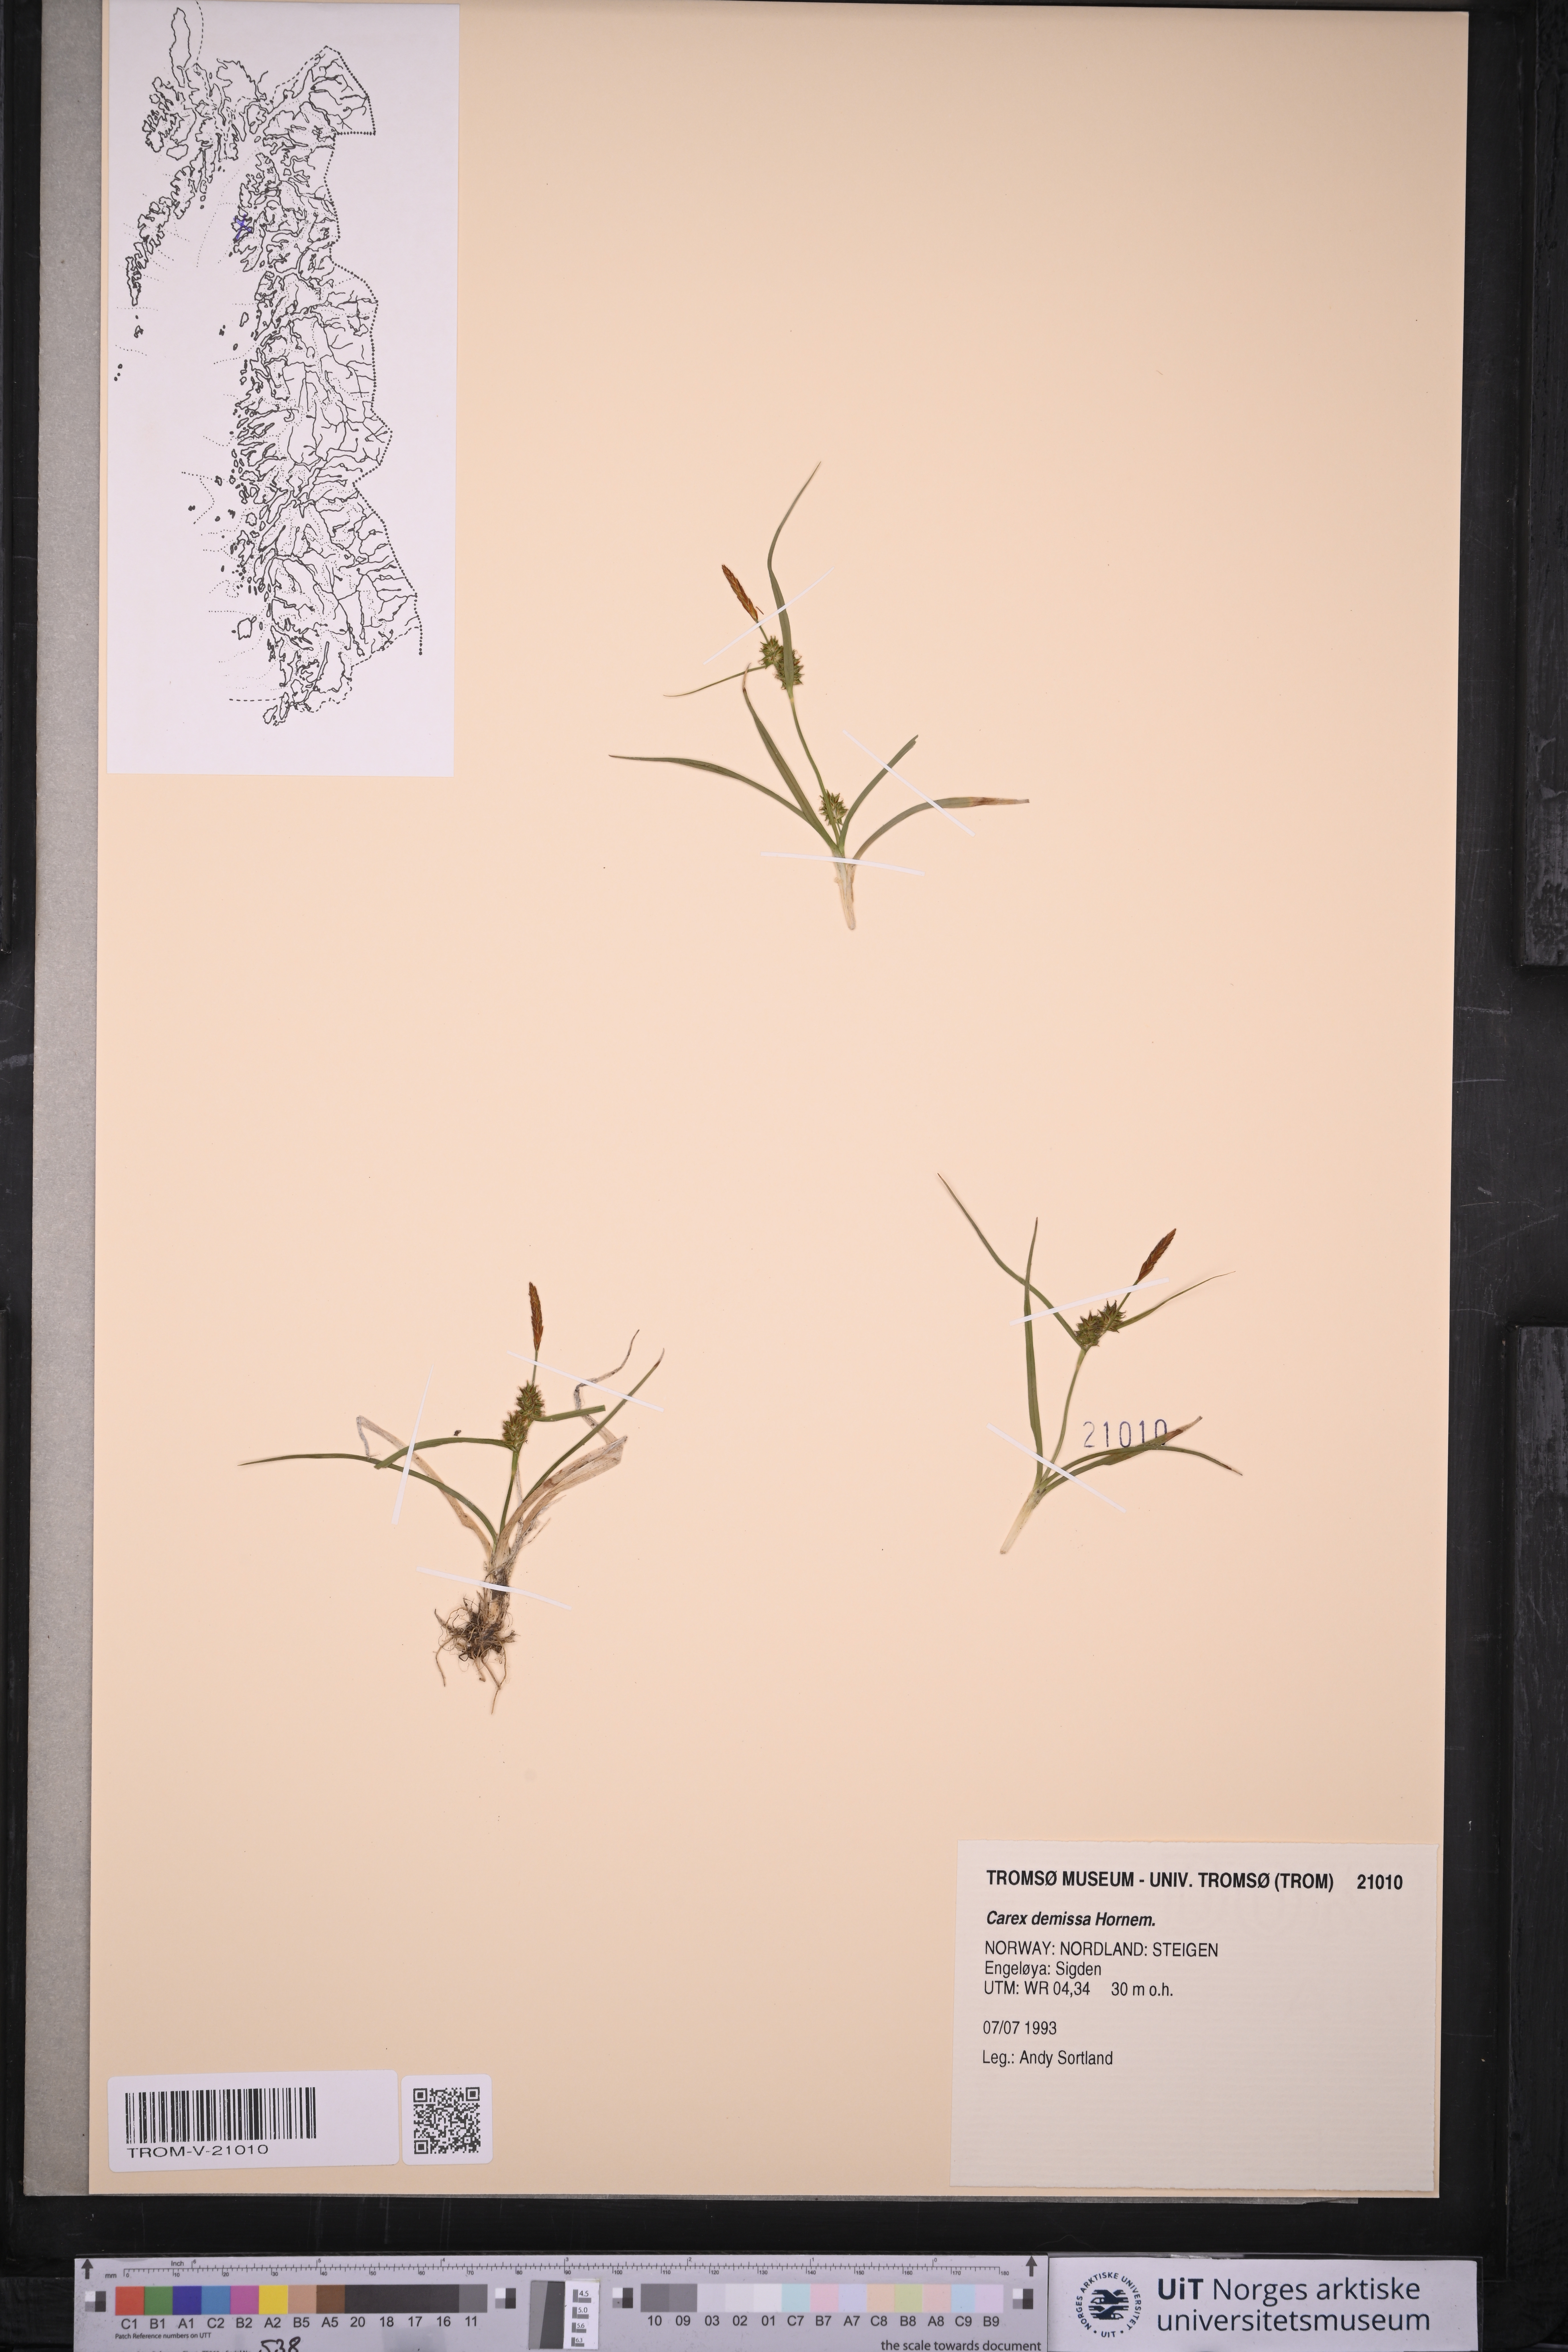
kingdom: Plantae
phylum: Tracheophyta
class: Liliopsida
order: Poales
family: Cyperaceae
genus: Carex
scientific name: Carex demissa
